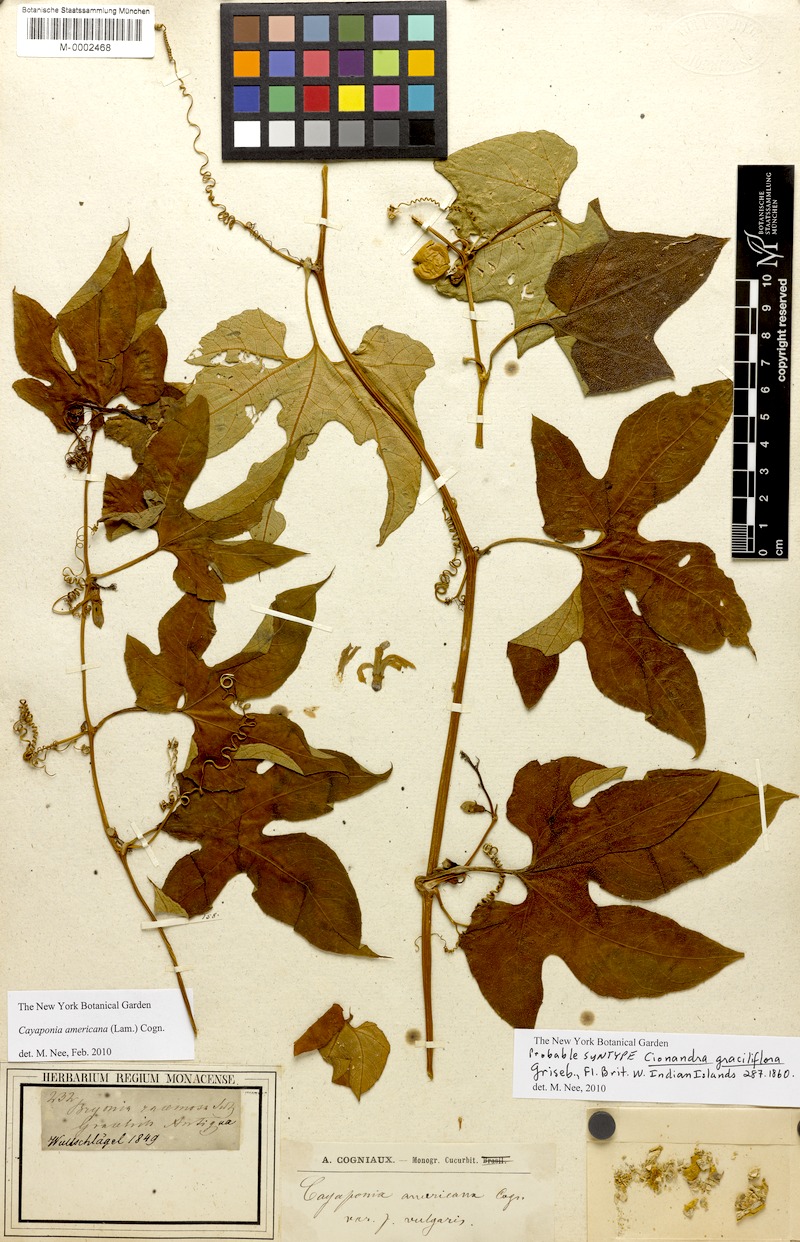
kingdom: Plantae
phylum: Tracheophyta
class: Magnoliopsida
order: Cucurbitales
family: Cucurbitaceae
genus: Cayaponia
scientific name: Cayaponia americana
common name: American melonleaf
